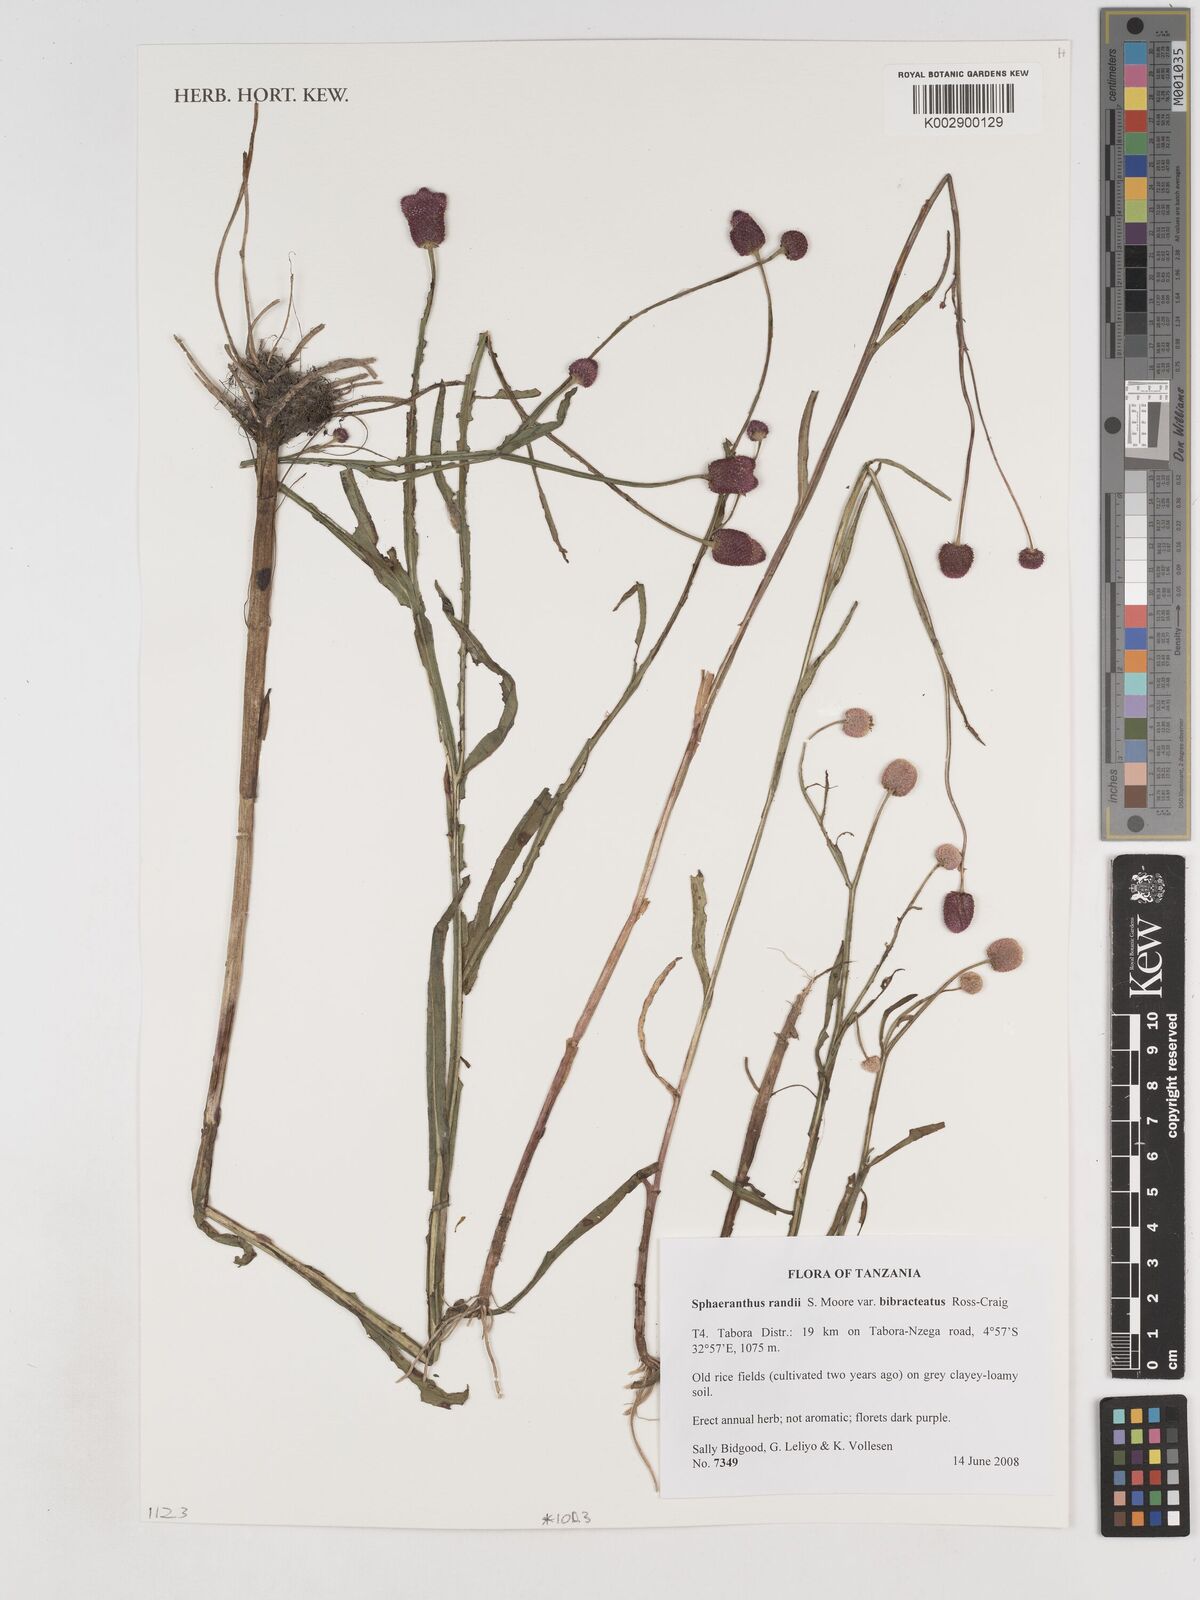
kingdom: Plantae
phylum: Tracheophyta
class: Magnoliopsida
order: Asterales
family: Asteraceae
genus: Sphaeranthus
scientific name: Sphaeranthus randii
